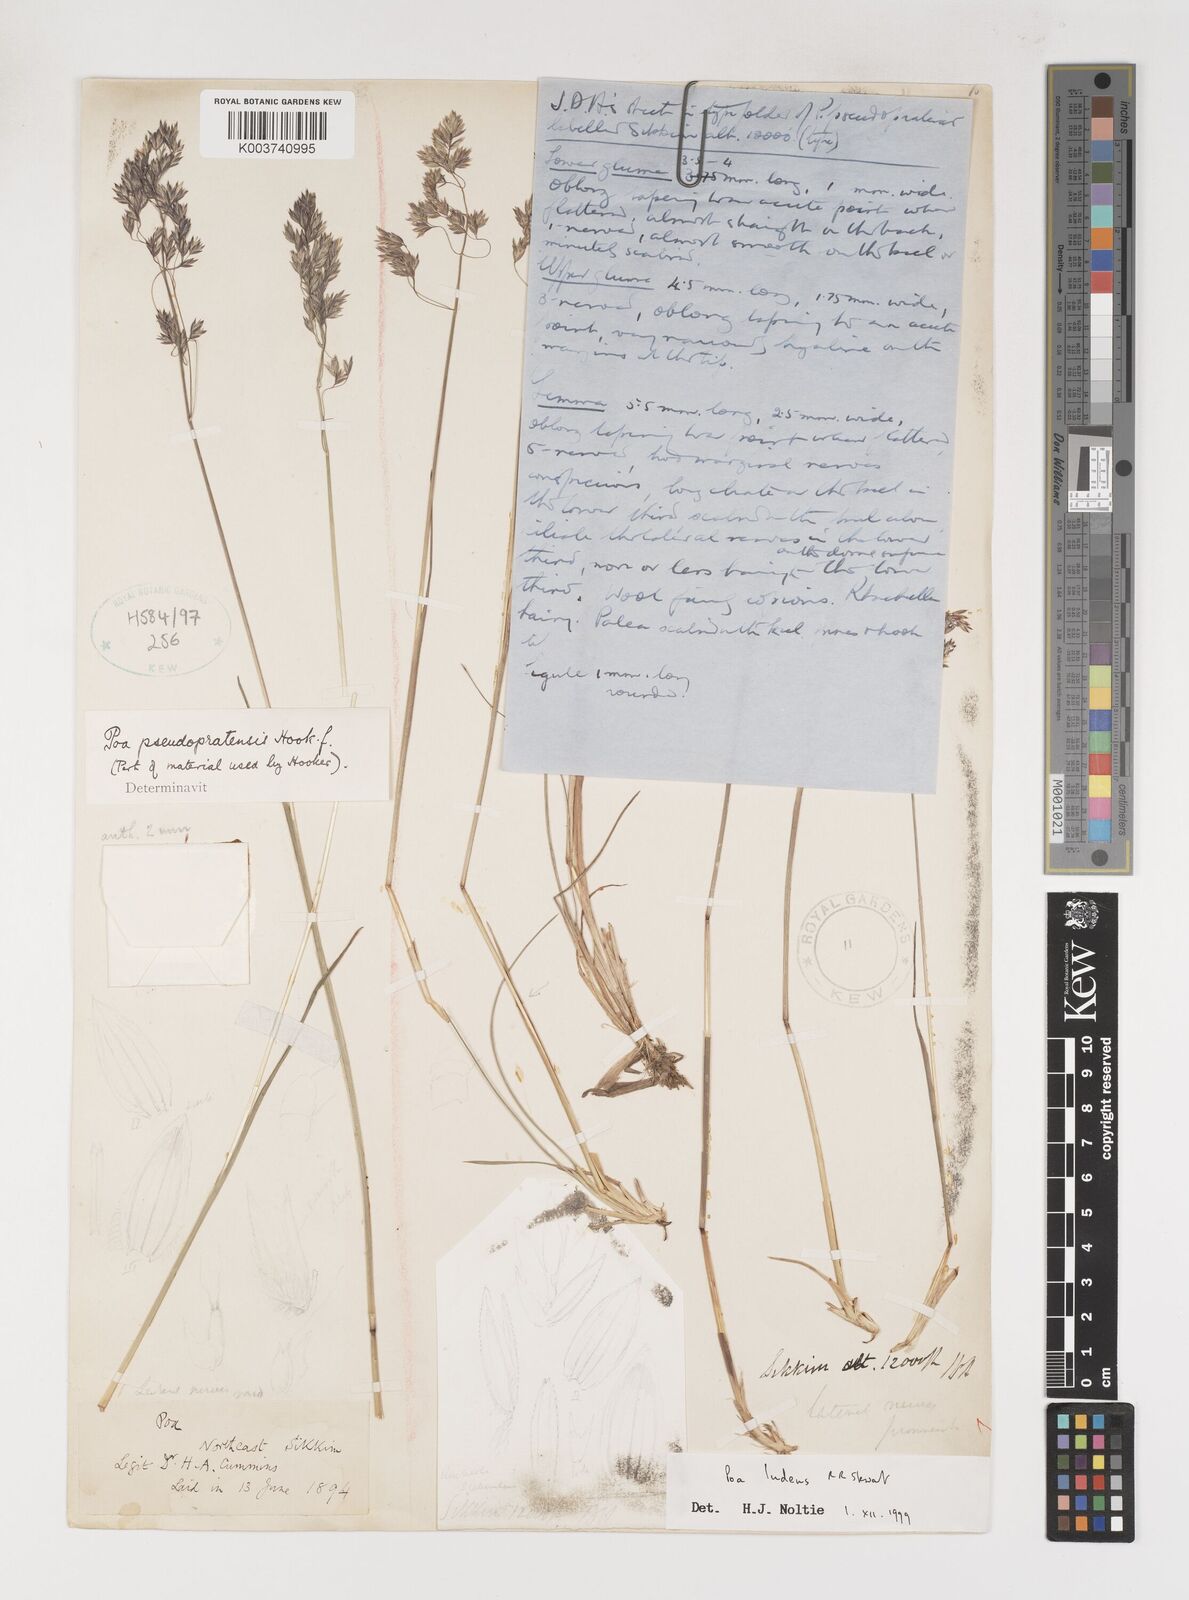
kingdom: Plantae
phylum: Tracheophyta
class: Liliopsida
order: Poales
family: Poaceae
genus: Poa
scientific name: Poa mairei
